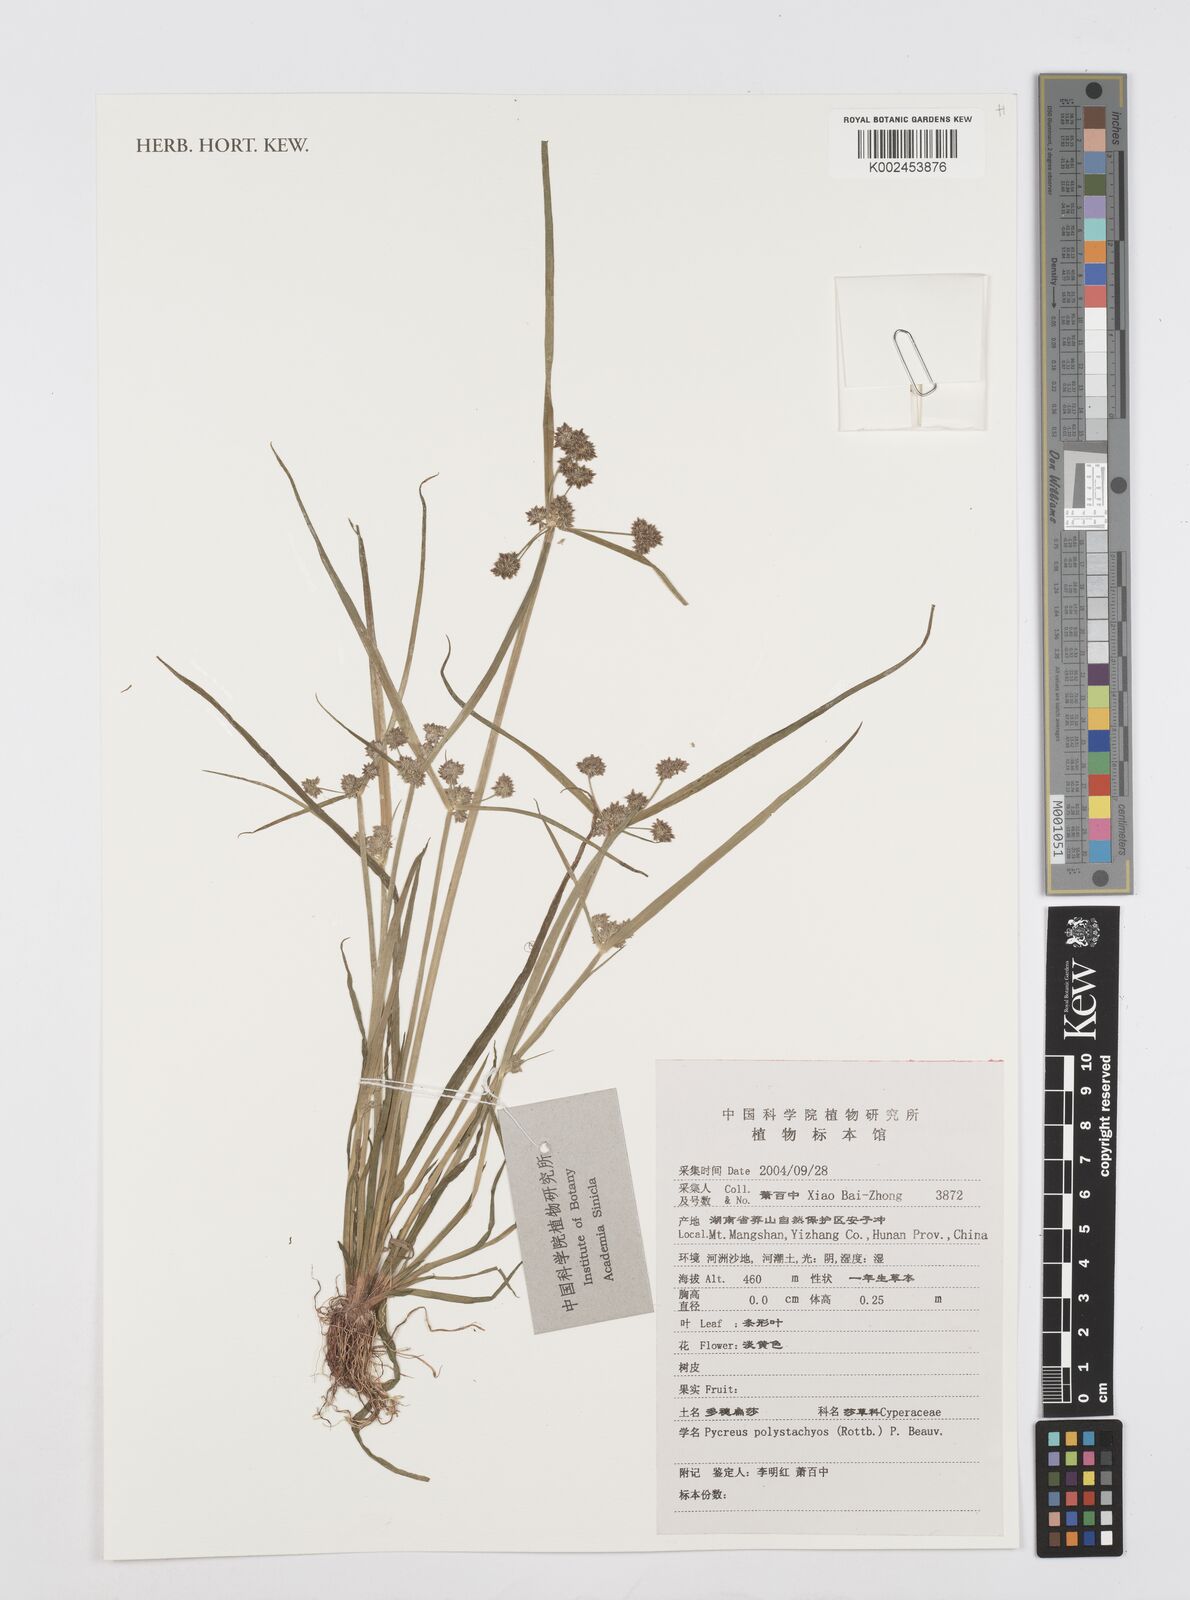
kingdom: Plantae
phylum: Tracheophyta
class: Liliopsida
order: Poales
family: Cyperaceae
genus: Cyperus
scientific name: Cyperus polystachyos
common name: Bunchy flat sedge
